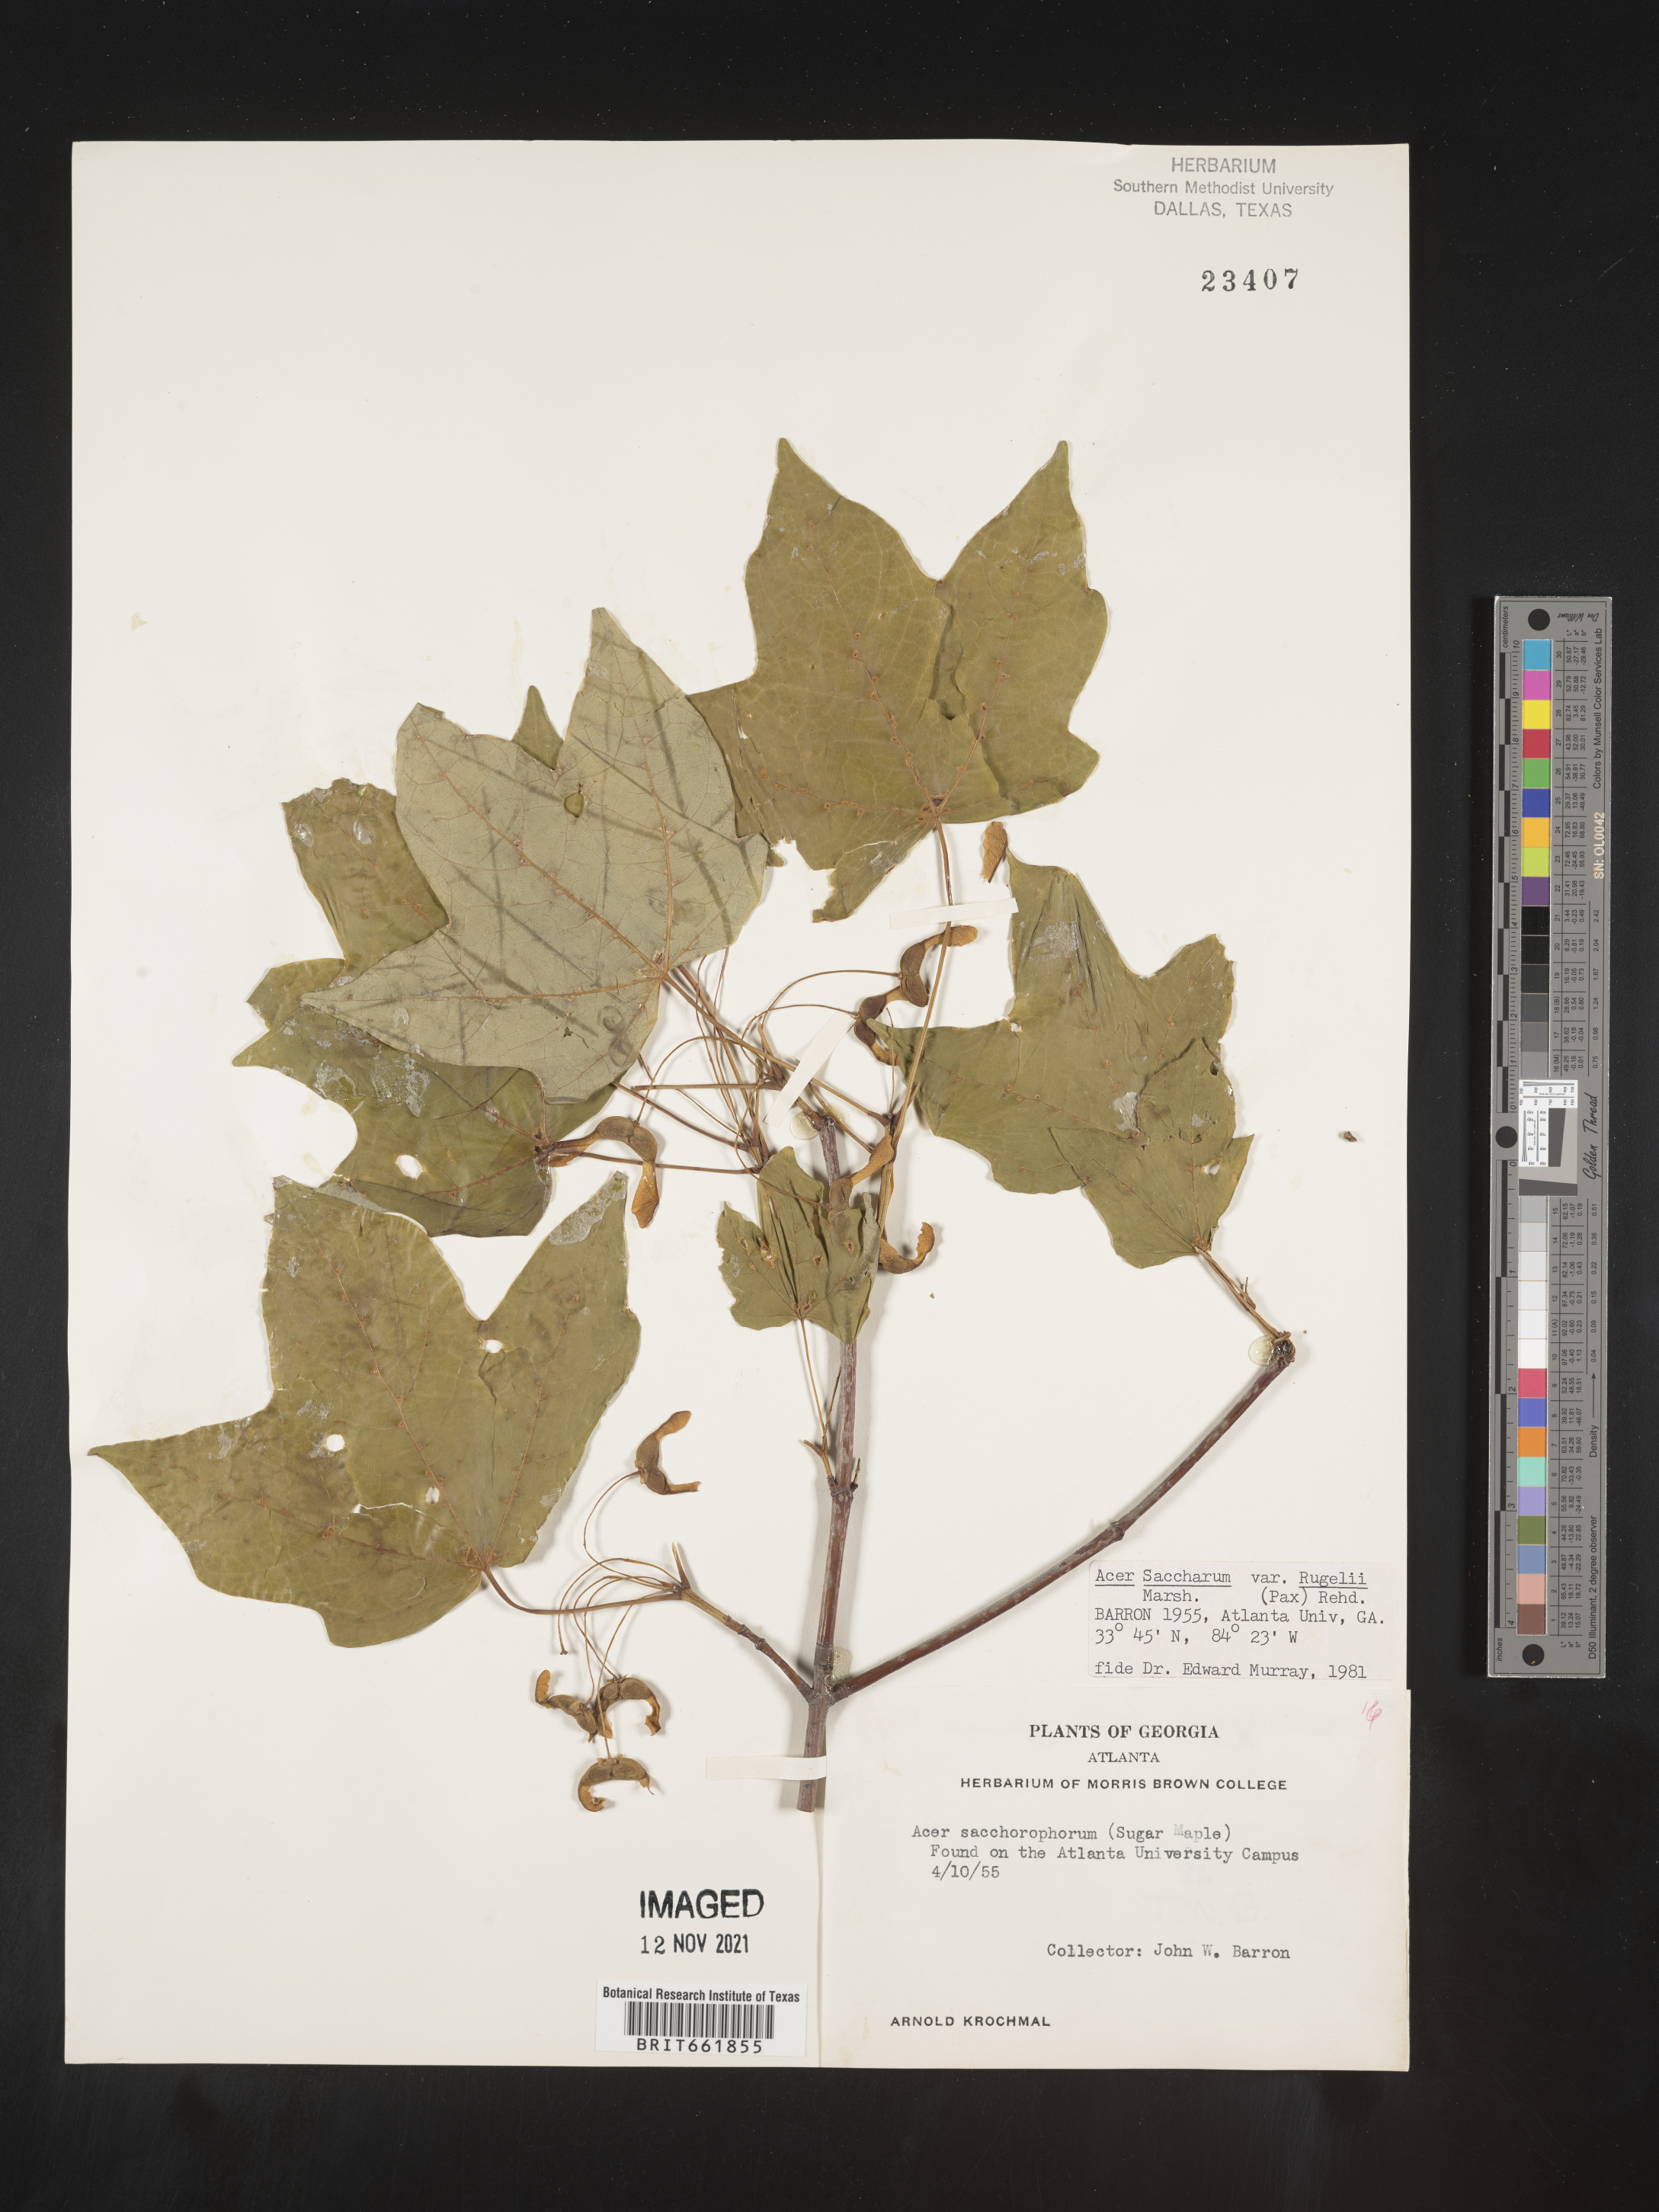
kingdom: Plantae
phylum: Tracheophyta
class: Magnoliopsida
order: Sapindales
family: Sapindaceae
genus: Acer
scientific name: Acer saccharum
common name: Sugar maple
